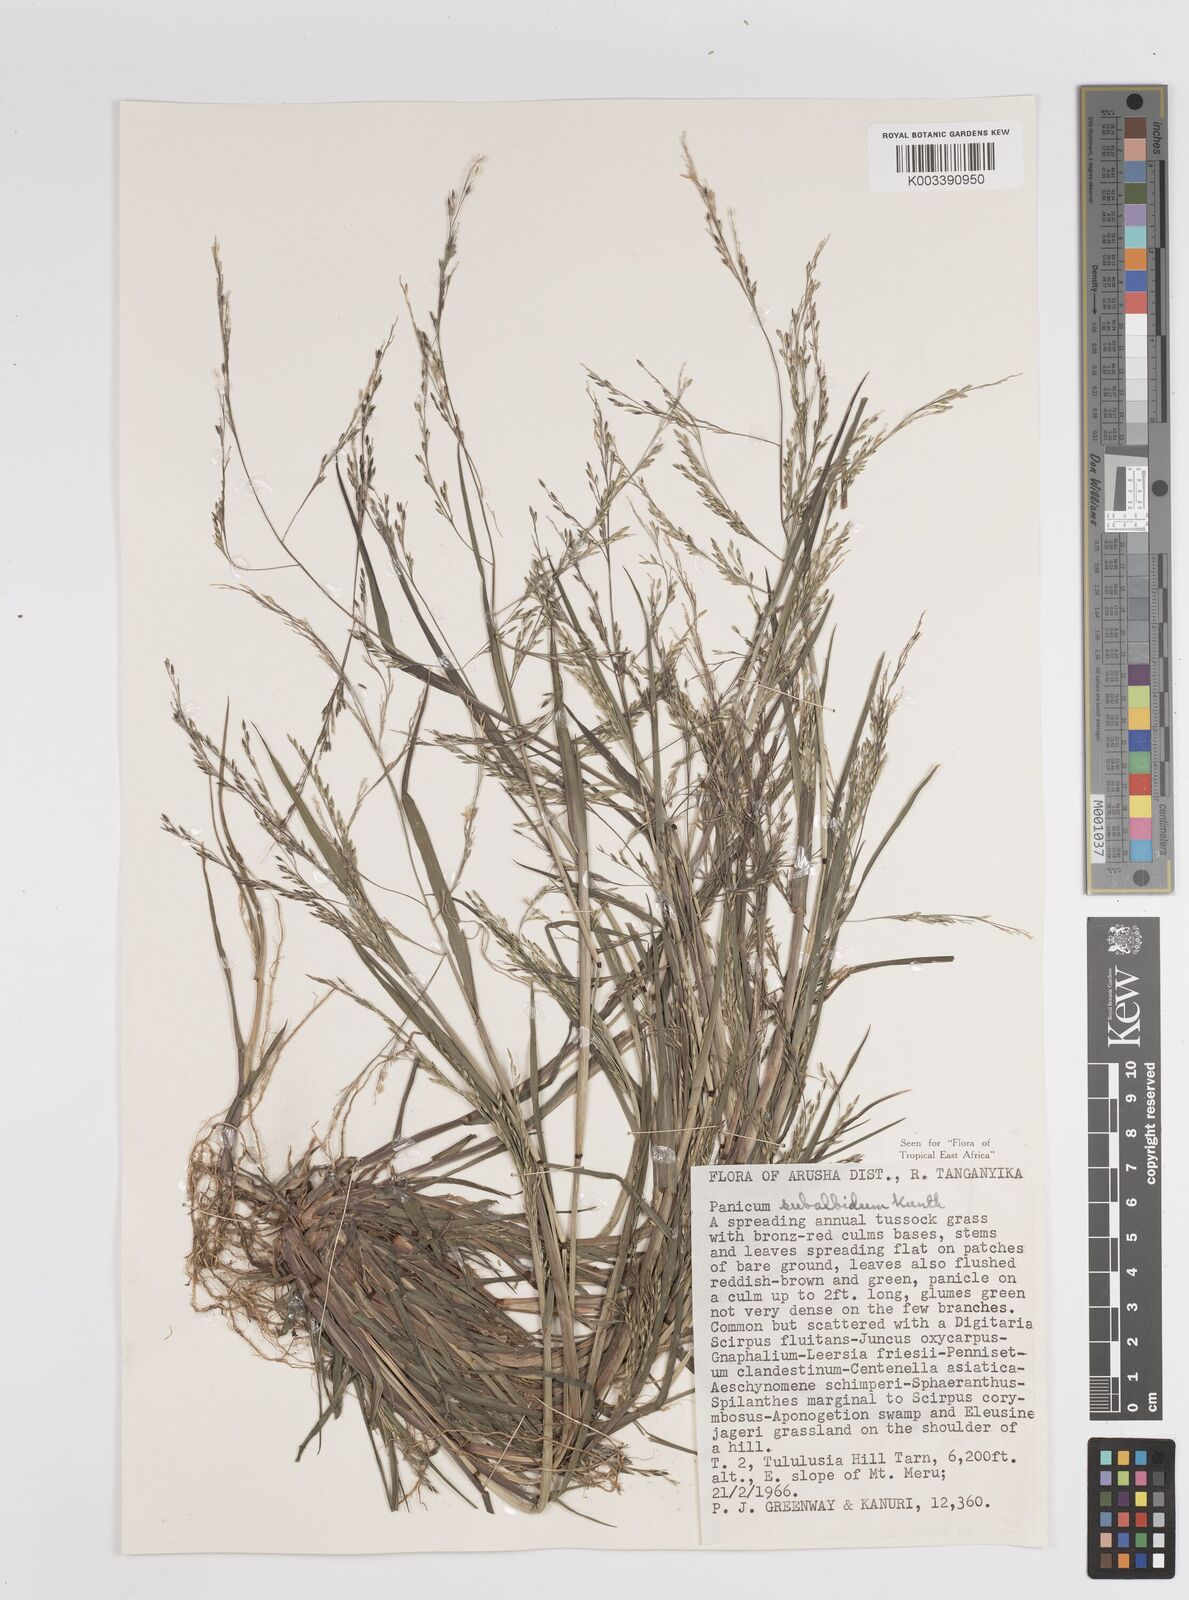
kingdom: Plantae
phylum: Tracheophyta
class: Liliopsida
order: Poales
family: Poaceae
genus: Panicum
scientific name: Panicum subalbidum
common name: Elbow buffalo grass
